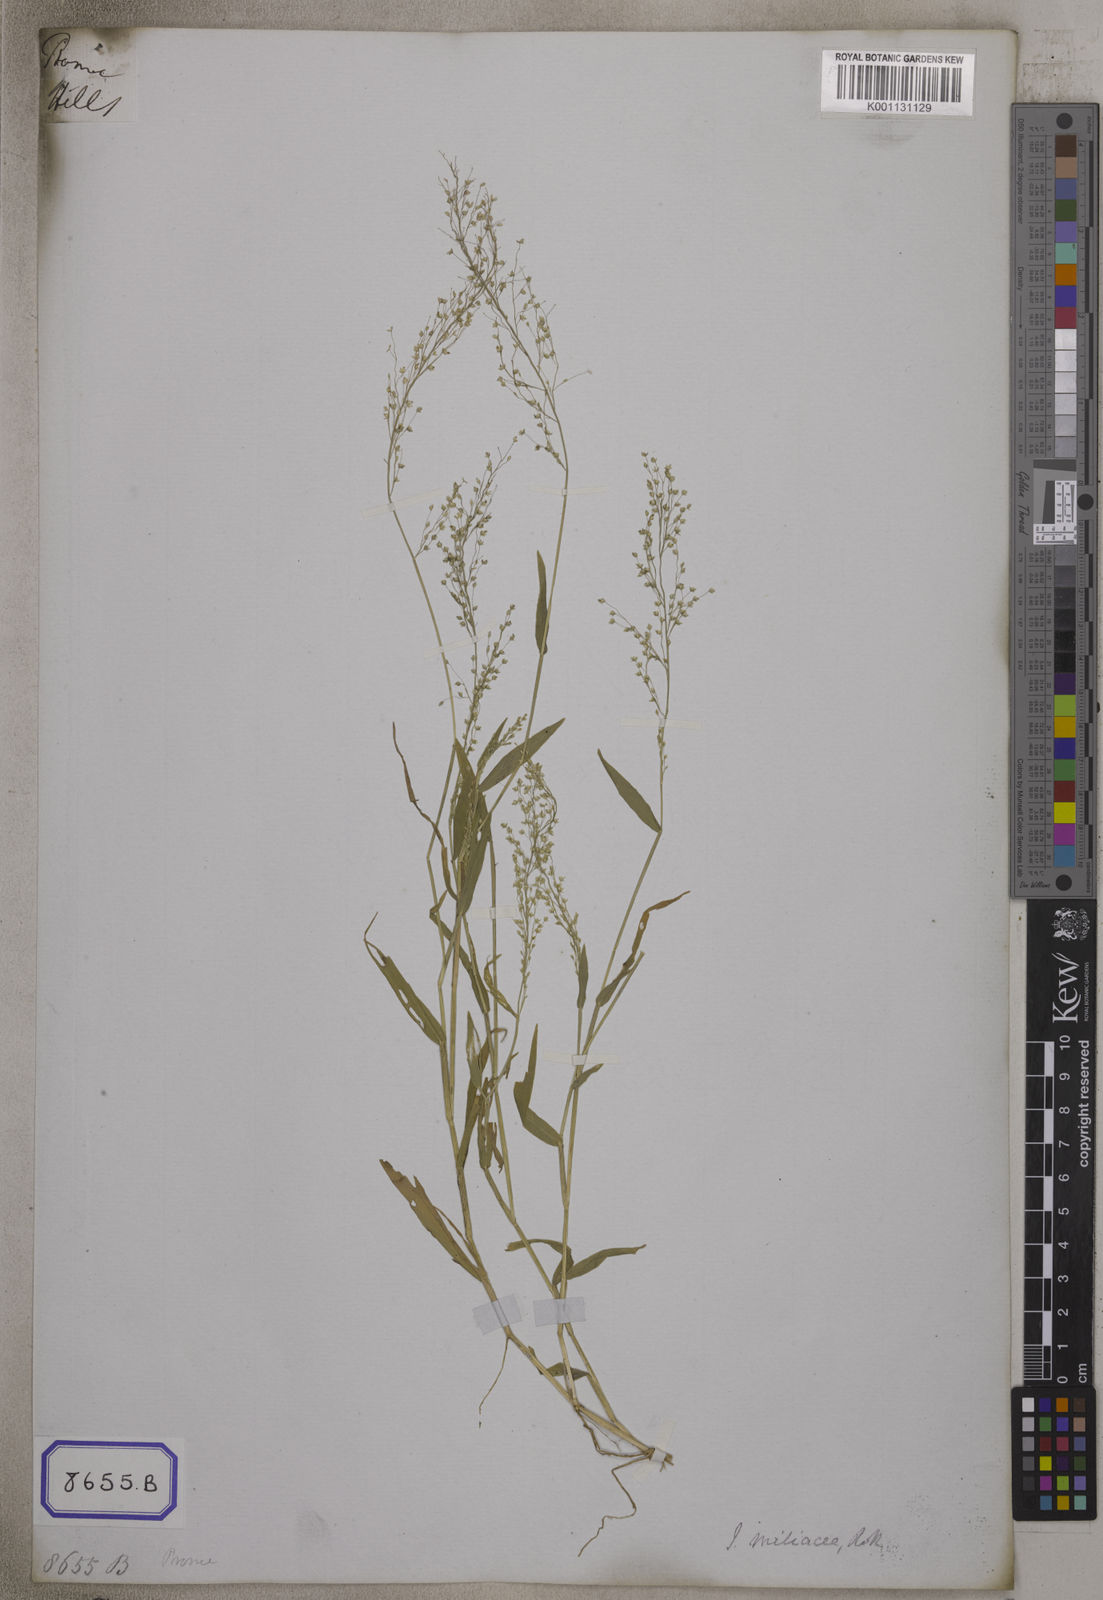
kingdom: Plantae
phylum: Tracheophyta
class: Liliopsida
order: Poales
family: Poaceae
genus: Isachne
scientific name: Isachne
